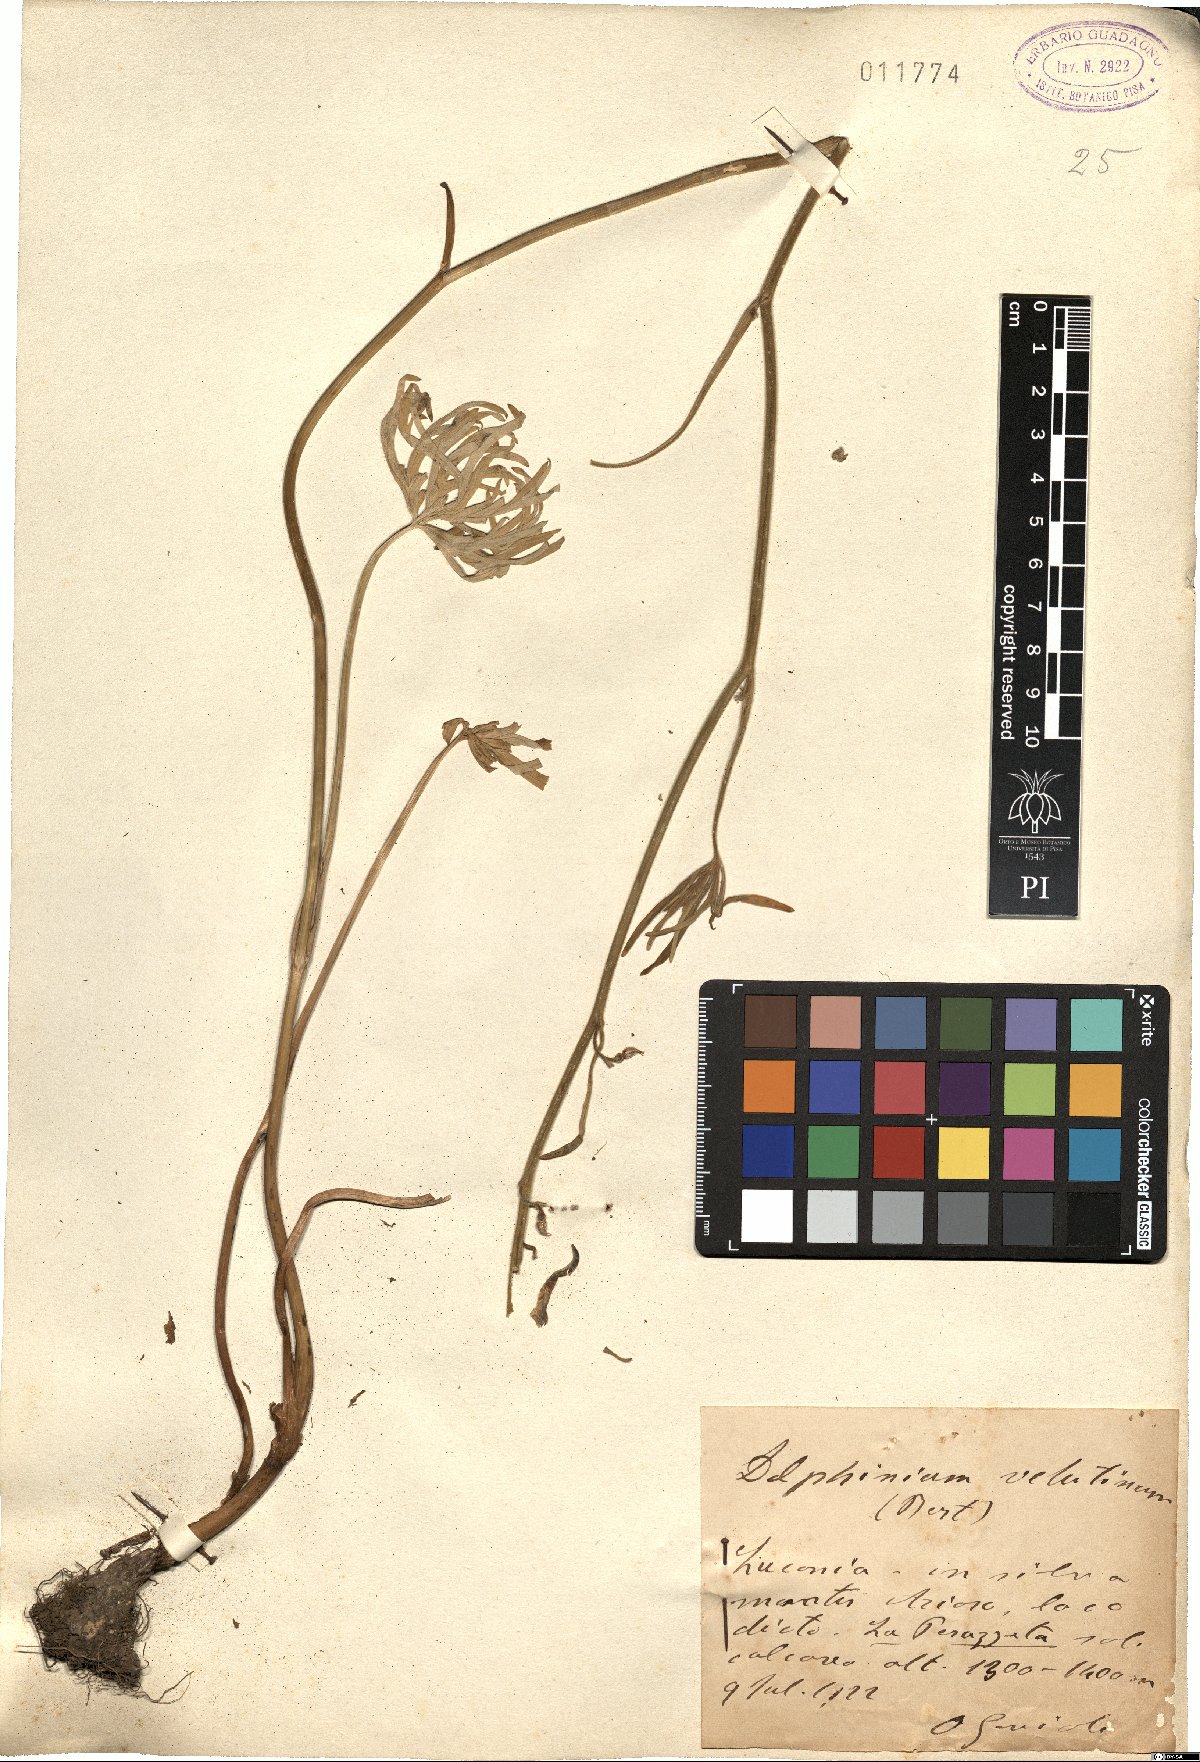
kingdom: Plantae
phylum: Tracheophyta
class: Magnoliopsida
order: Ranunculales
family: Ranunculaceae
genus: Delphinium
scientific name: Delphinium fissum
